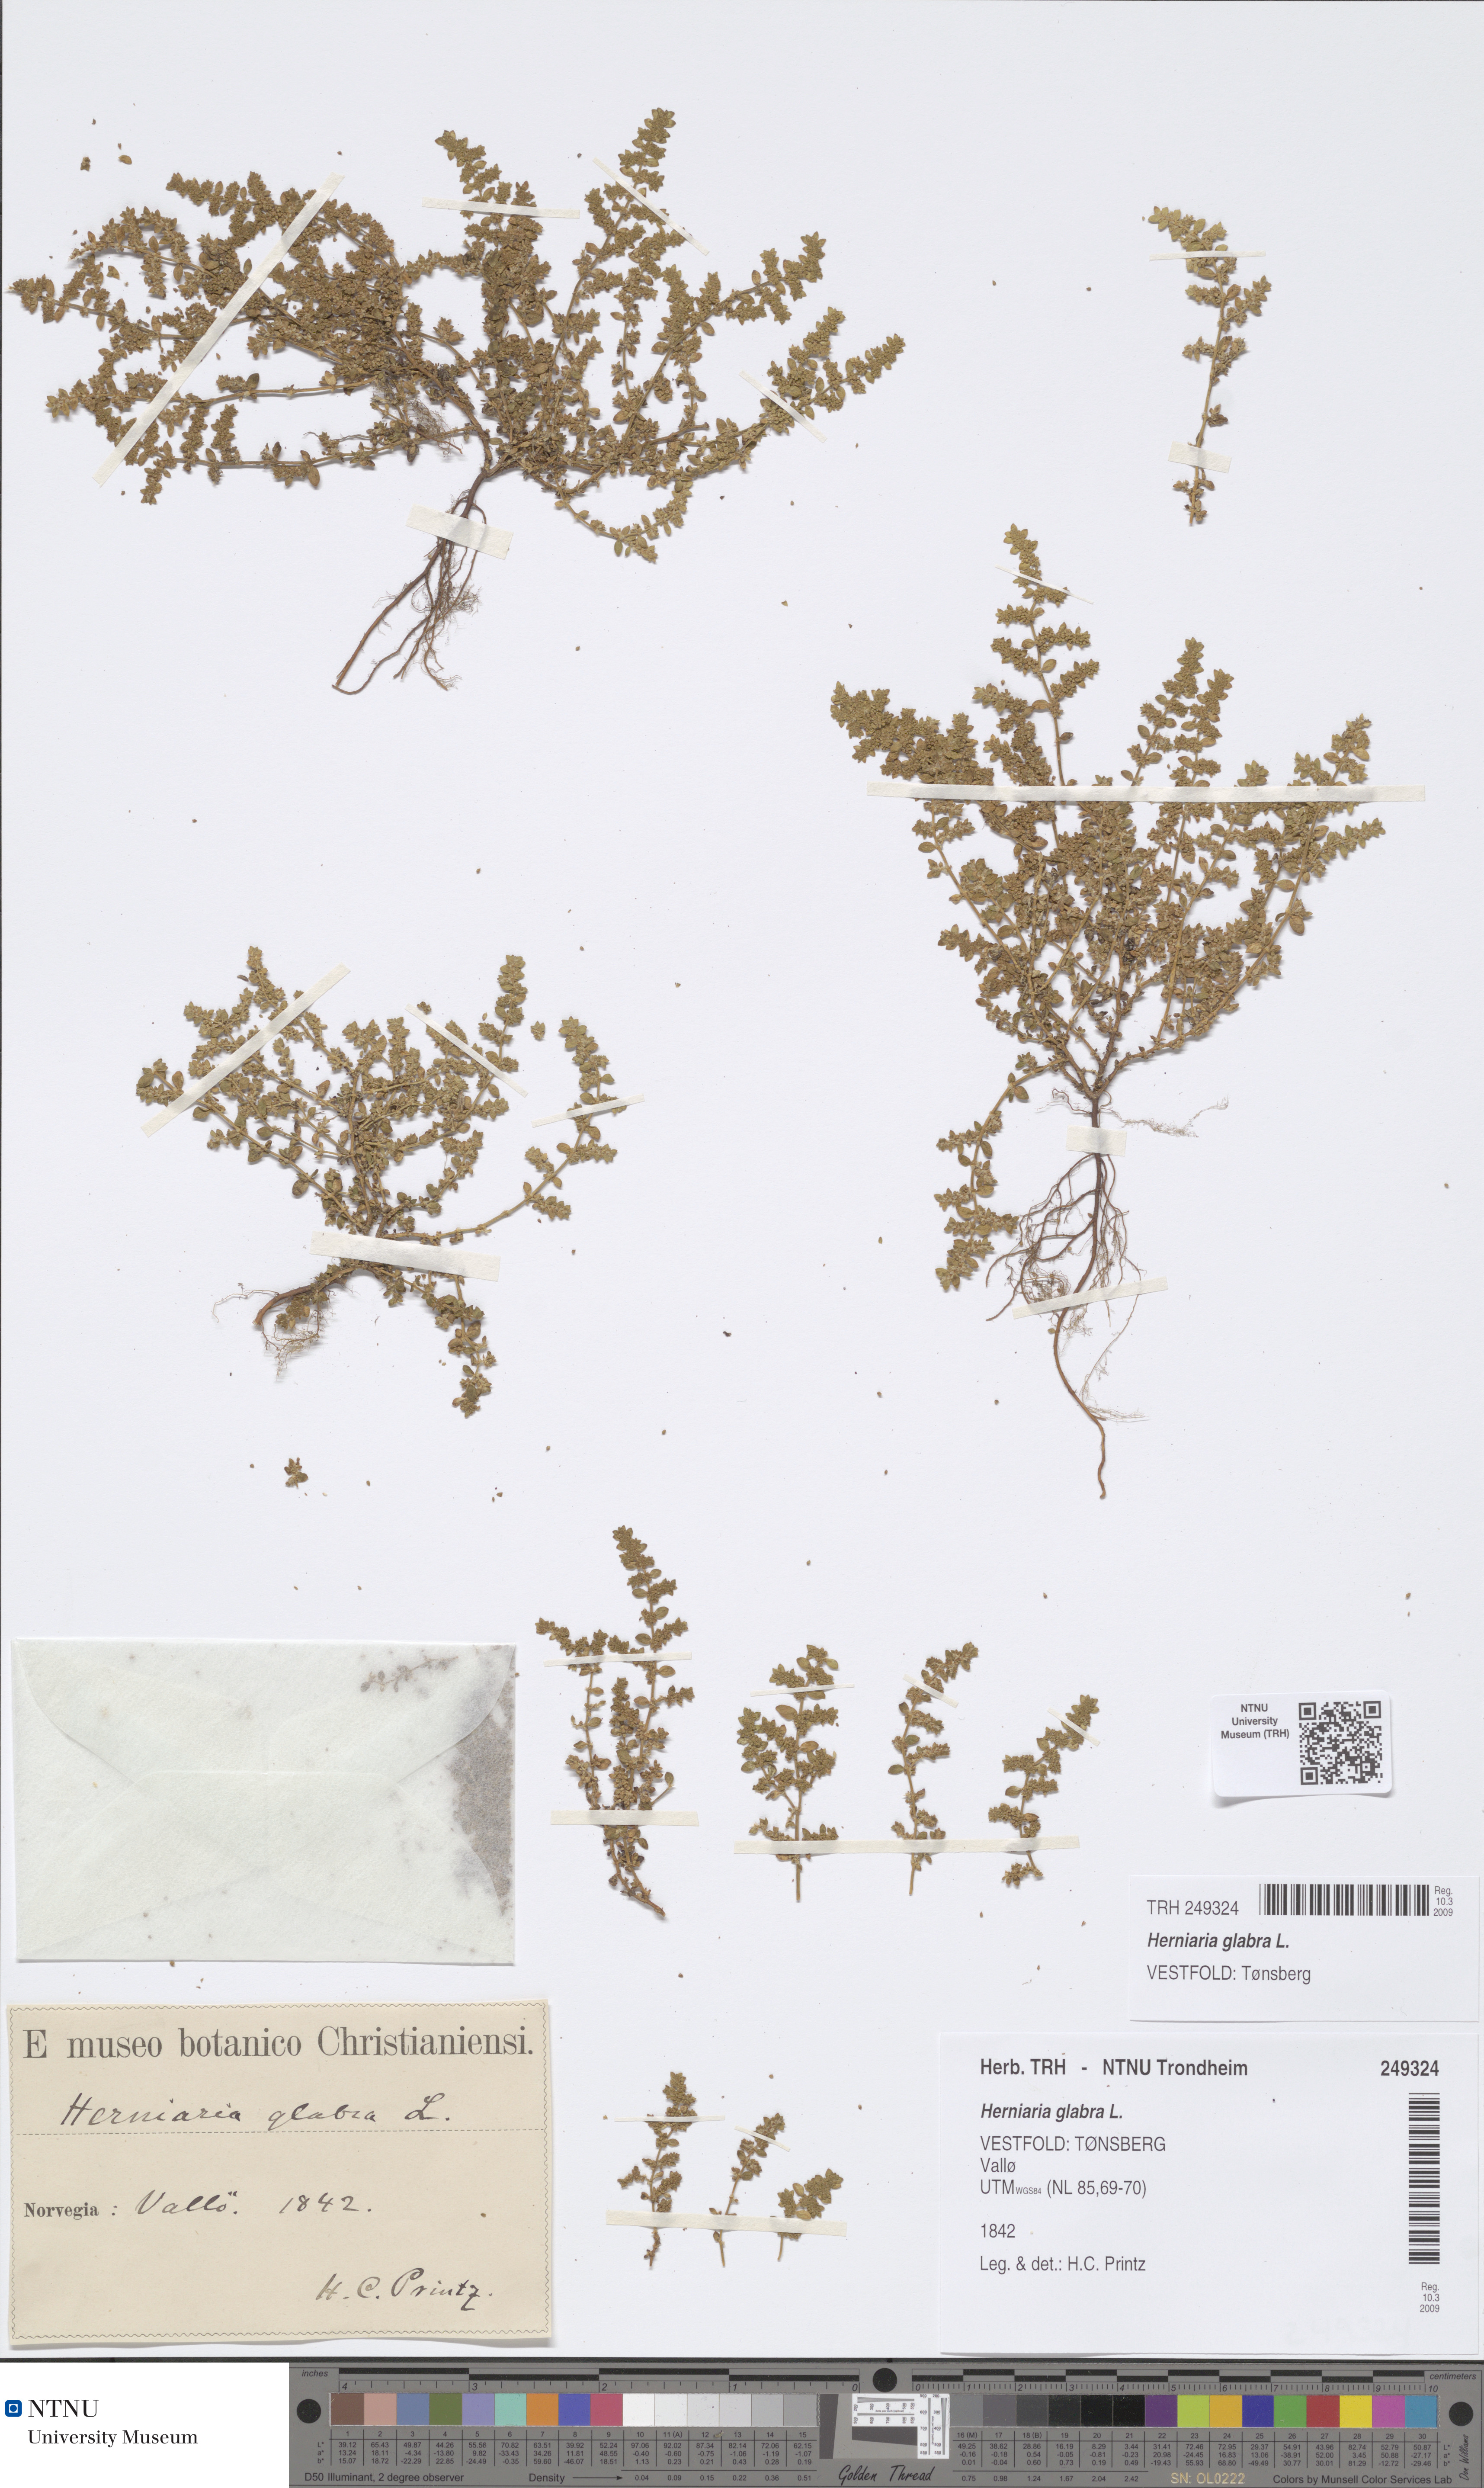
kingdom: Plantae
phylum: Tracheophyta
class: Magnoliopsida
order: Caryophyllales
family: Caryophyllaceae
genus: Herniaria
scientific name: Herniaria glabra
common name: Smooth rupturewort
